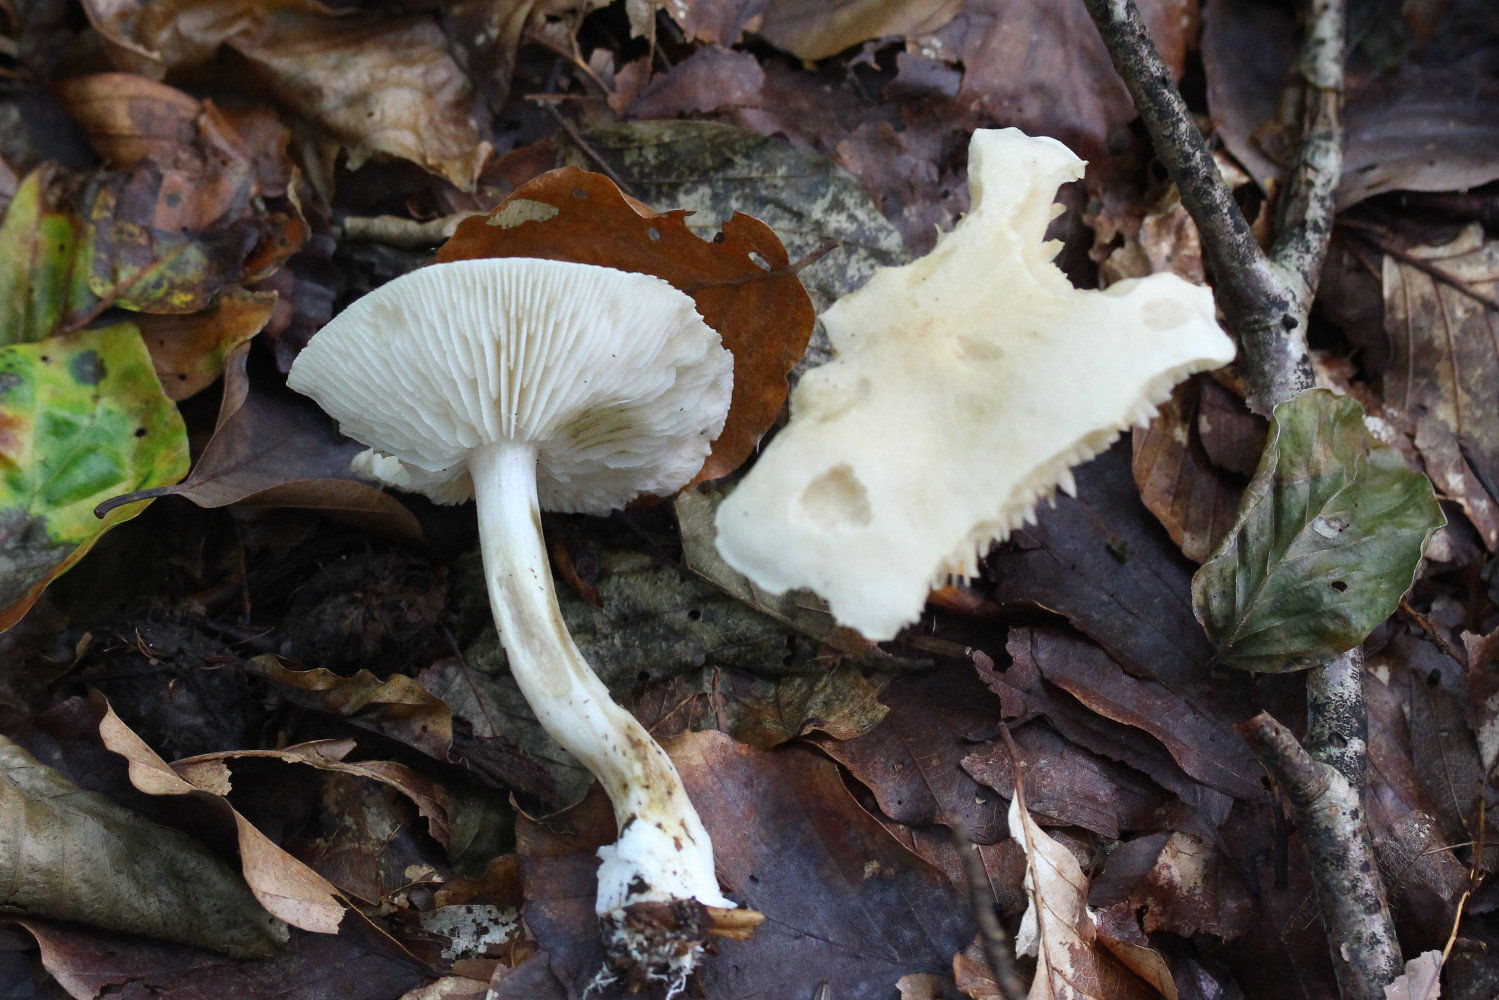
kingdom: Fungi
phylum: Basidiomycota
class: Agaricomycetes
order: Agaricales
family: Tricholomataceae
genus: Tricholoma
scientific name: Tricholoma lascivum
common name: stinkende ridderhat
